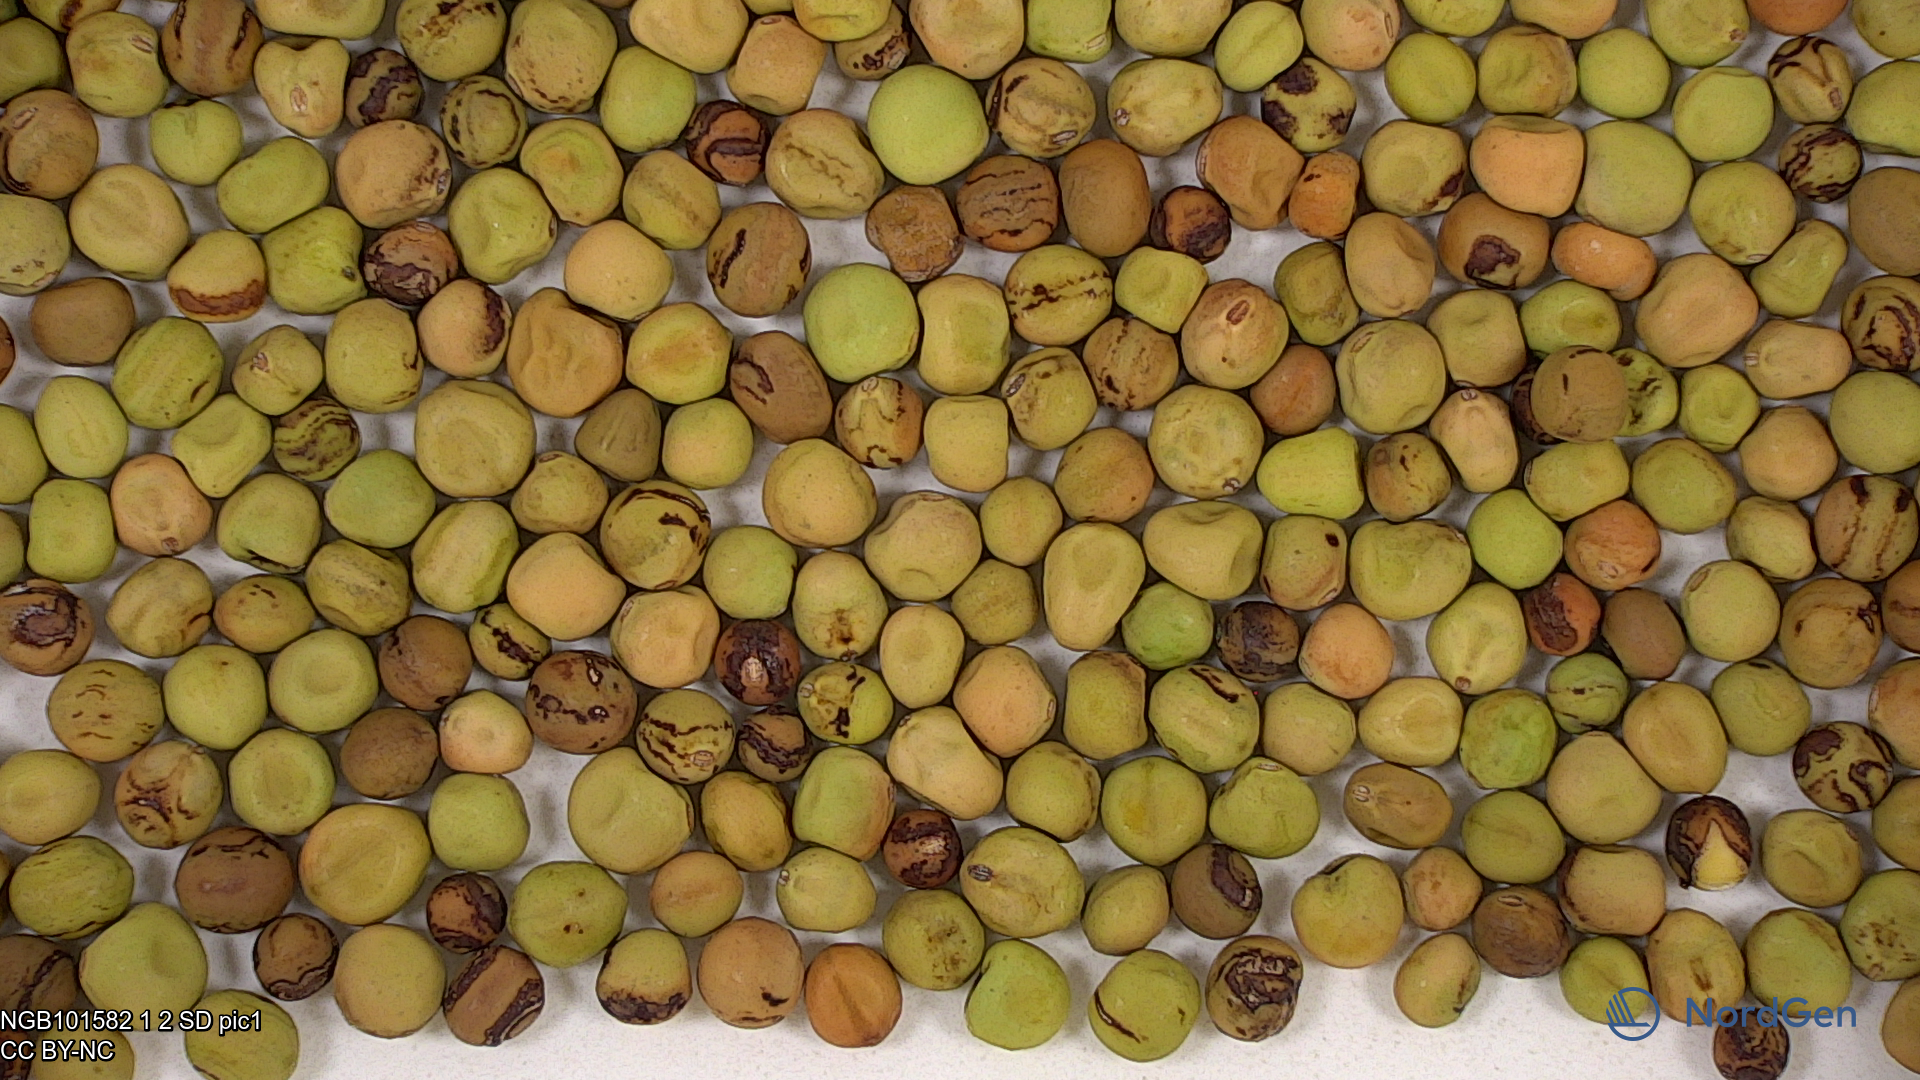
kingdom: Plantae
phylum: Tracheophyta
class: Magnoliopsida
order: Fabales
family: Fabaceae
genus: Lathyrus
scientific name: Lathyrus oleraceus
